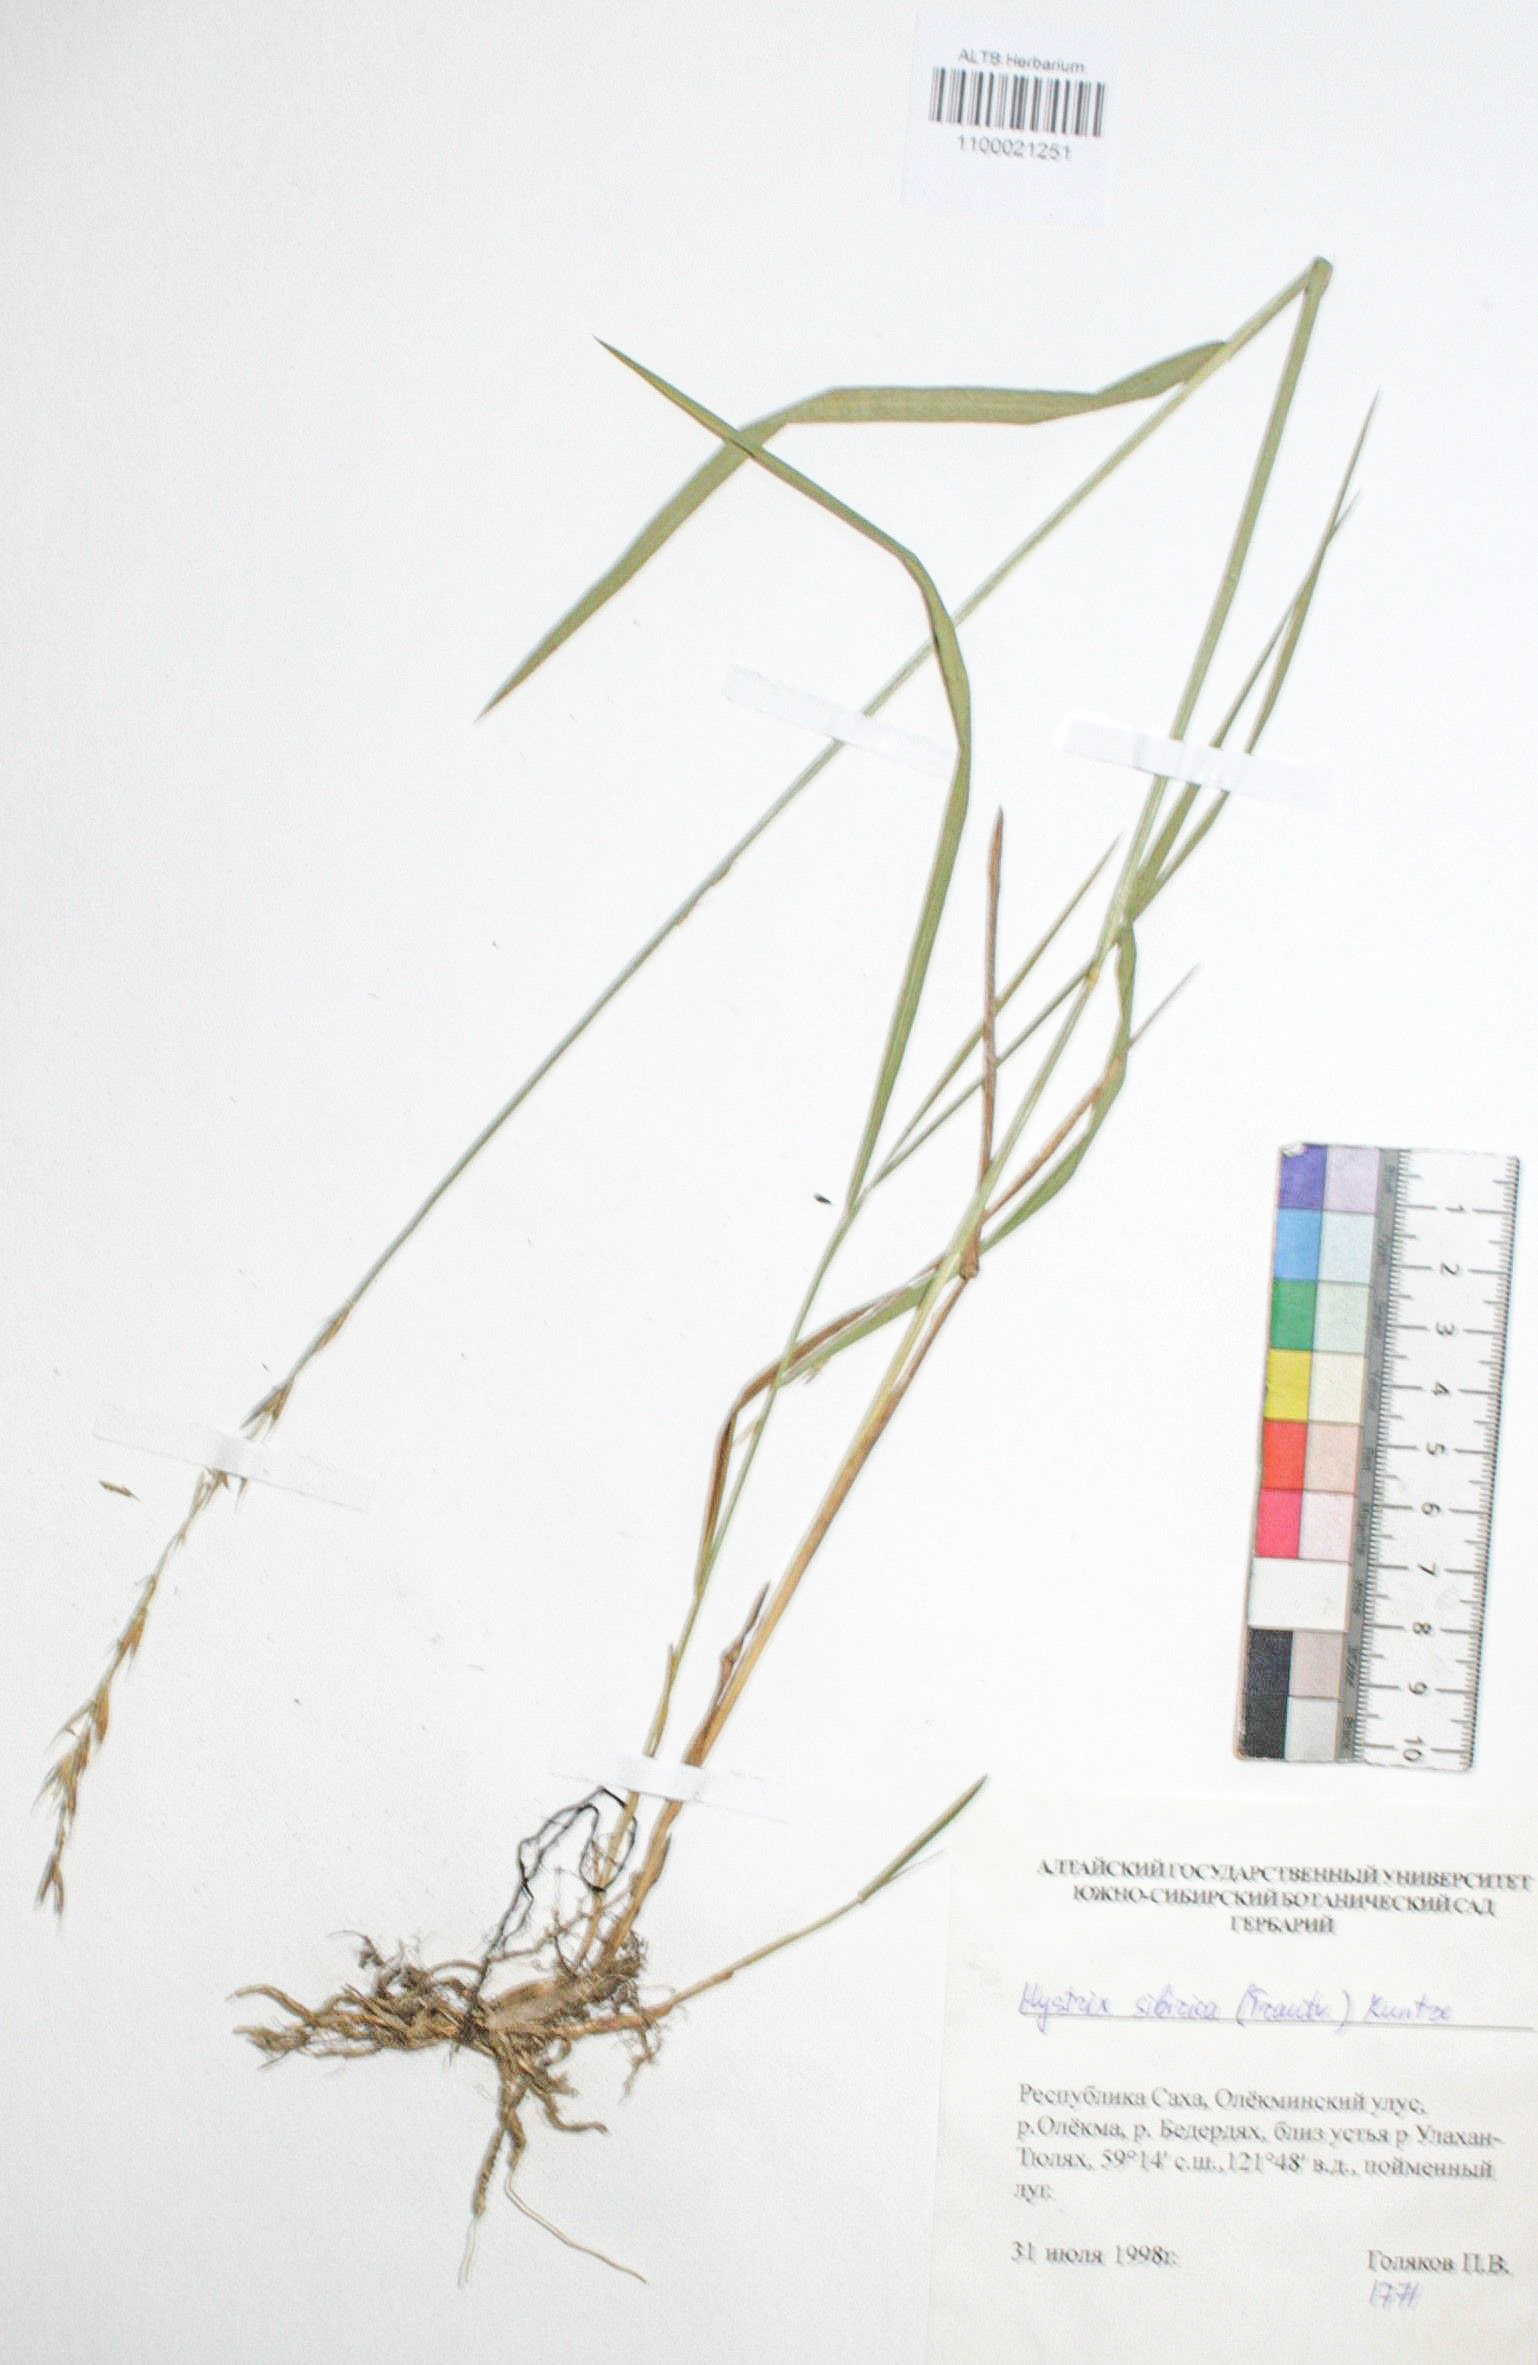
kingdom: Plantae
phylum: Tracheophyta
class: Liliopsida
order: Poales
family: Poaceae
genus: Leymus
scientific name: Leymus sibiricus
